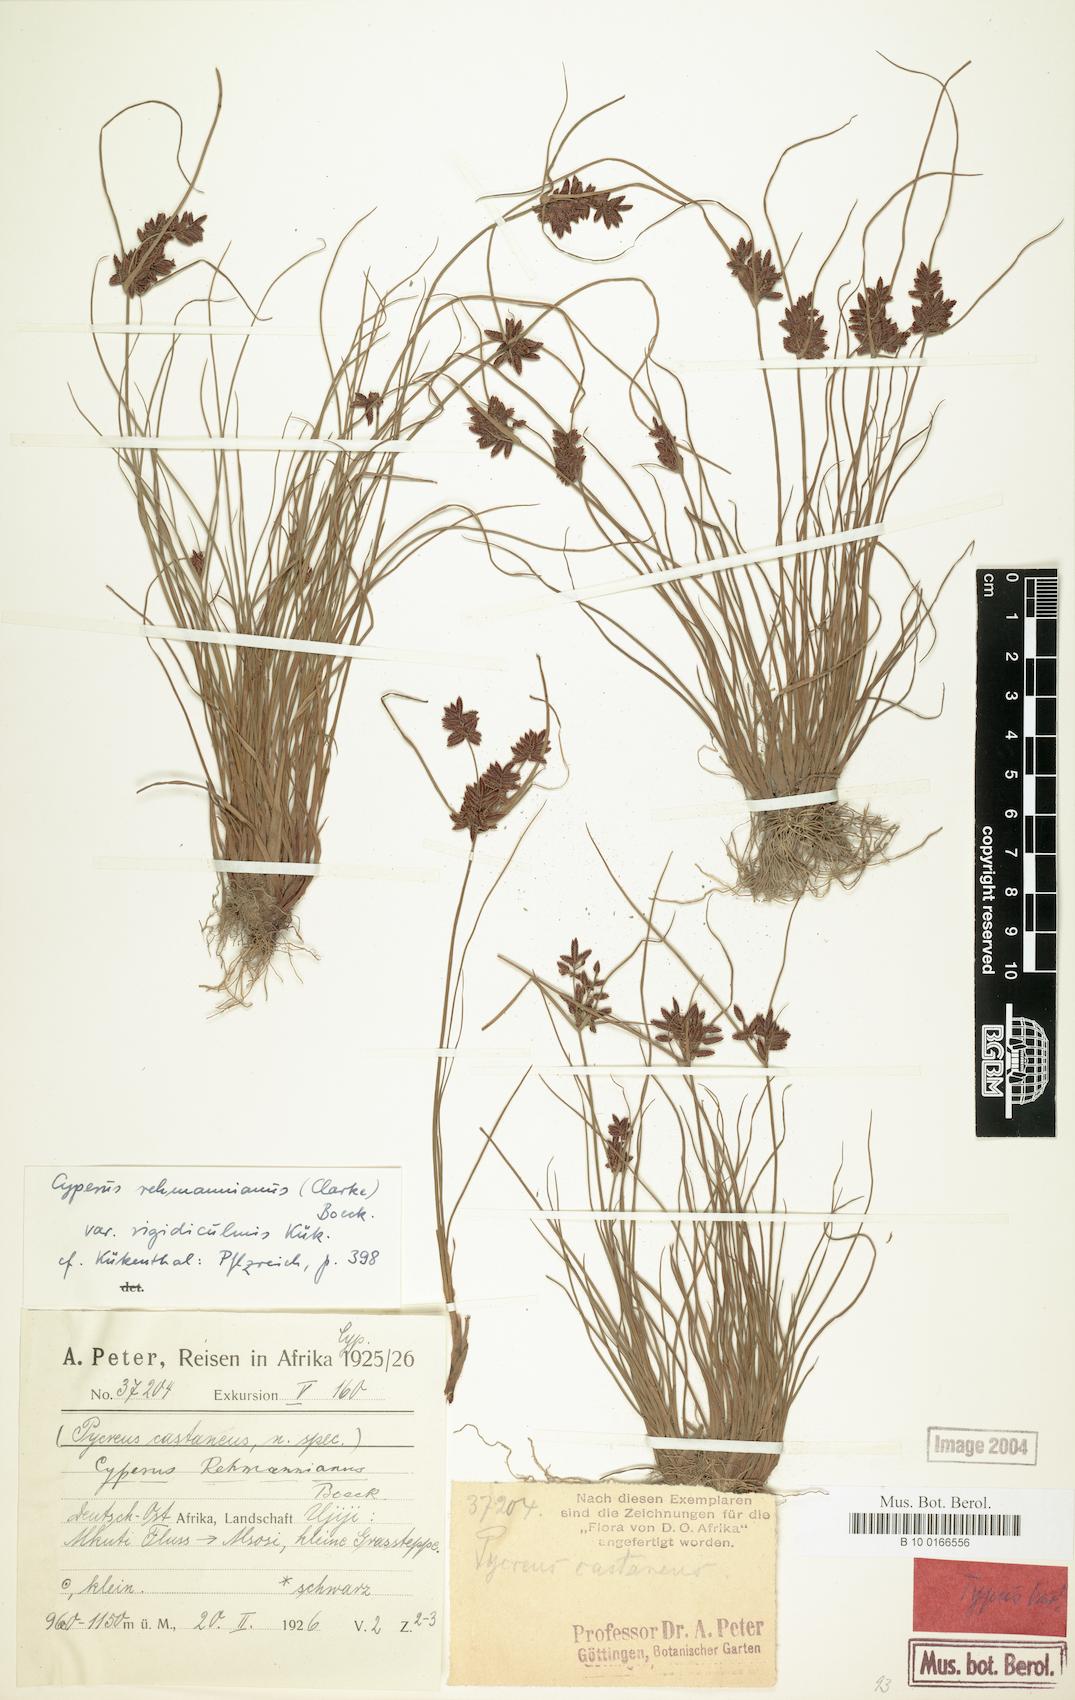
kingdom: Plantae
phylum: Tracheophyta
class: Liliopsida
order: Poales
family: Cyperaceae
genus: Cyperus
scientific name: Cyperus flavescens
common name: Yellow galingale
